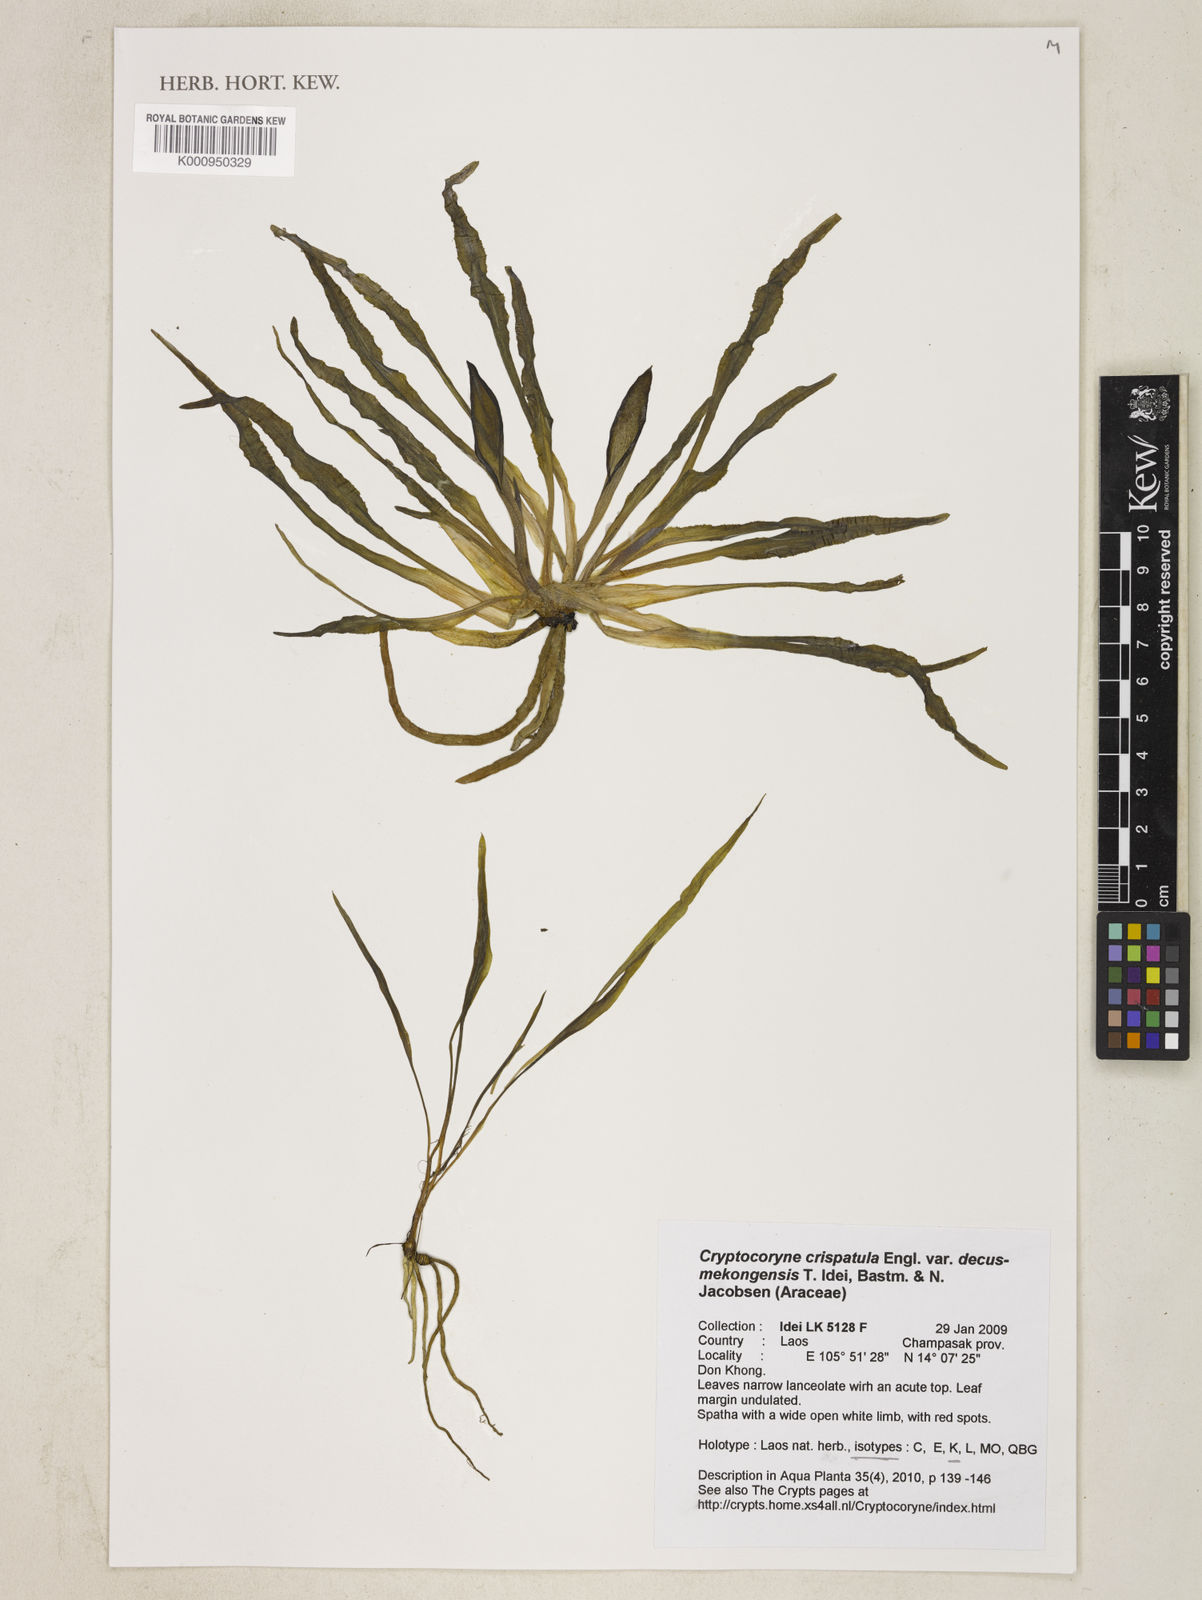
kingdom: Plantae
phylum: Tracheophyta
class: Liliopsida
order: Alismatales
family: Araceae
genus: Cryptocoryne
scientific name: Cryptocoryne crispatula
